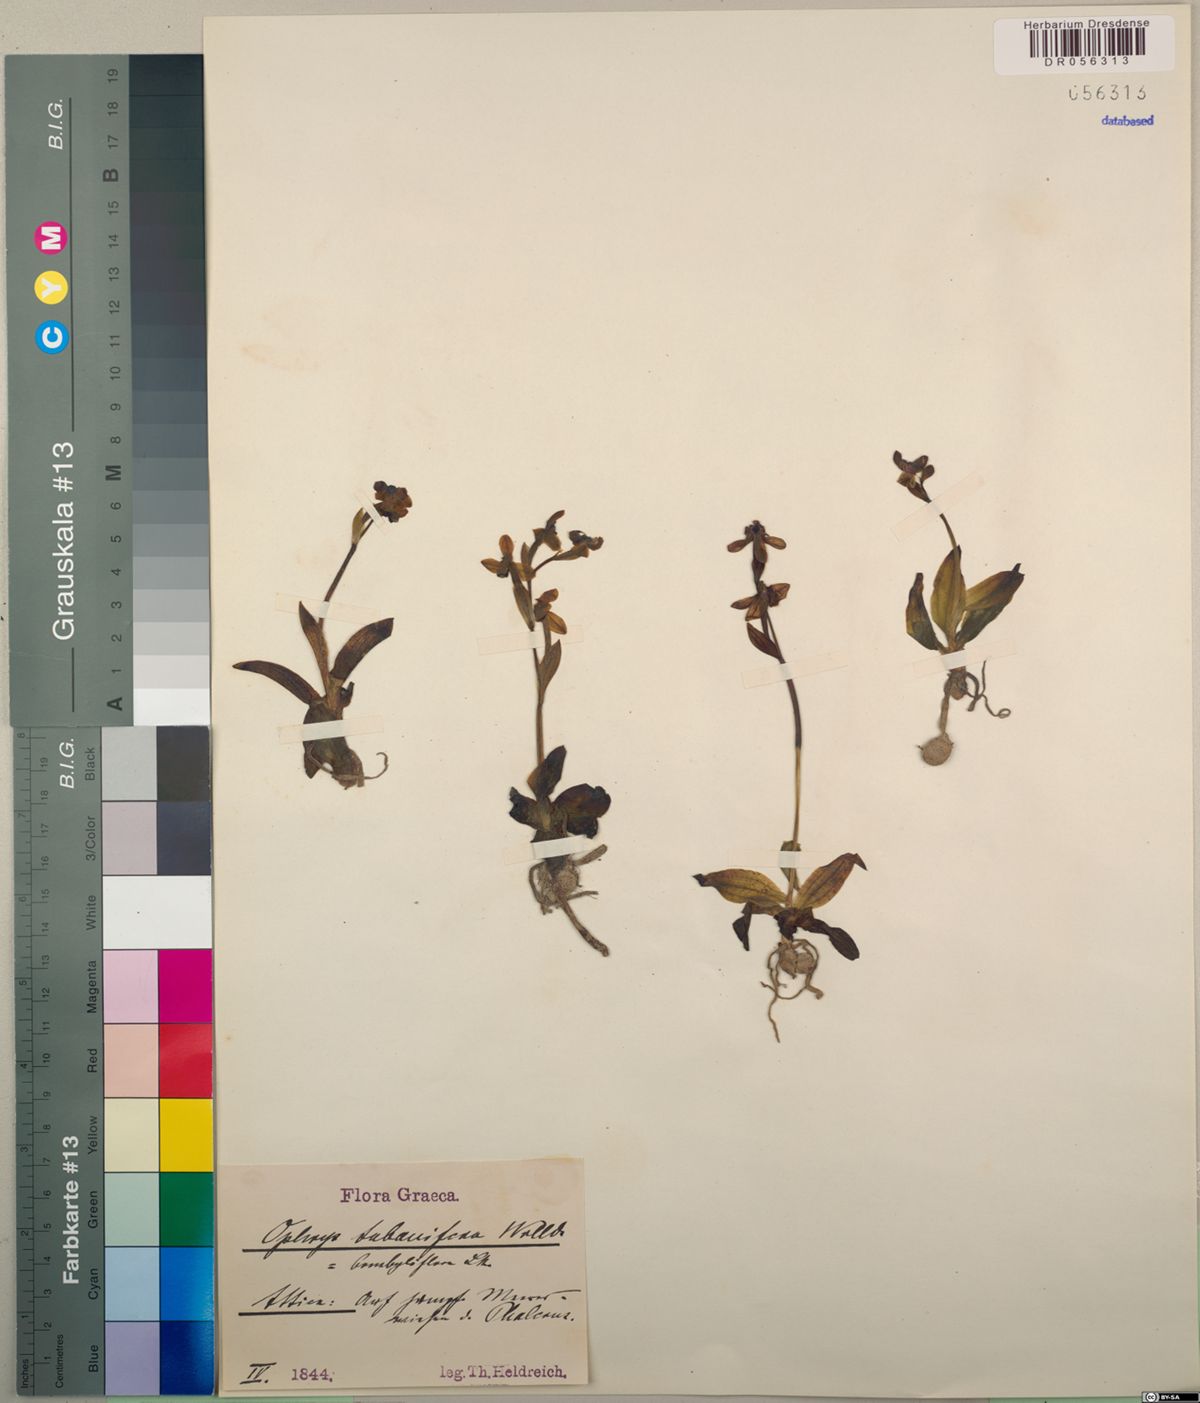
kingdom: Plantae
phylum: Tracheophyta
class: Liliopsida
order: Asparagales
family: Orchidaceae
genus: Ophrys
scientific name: Ophrys bombyliflora
